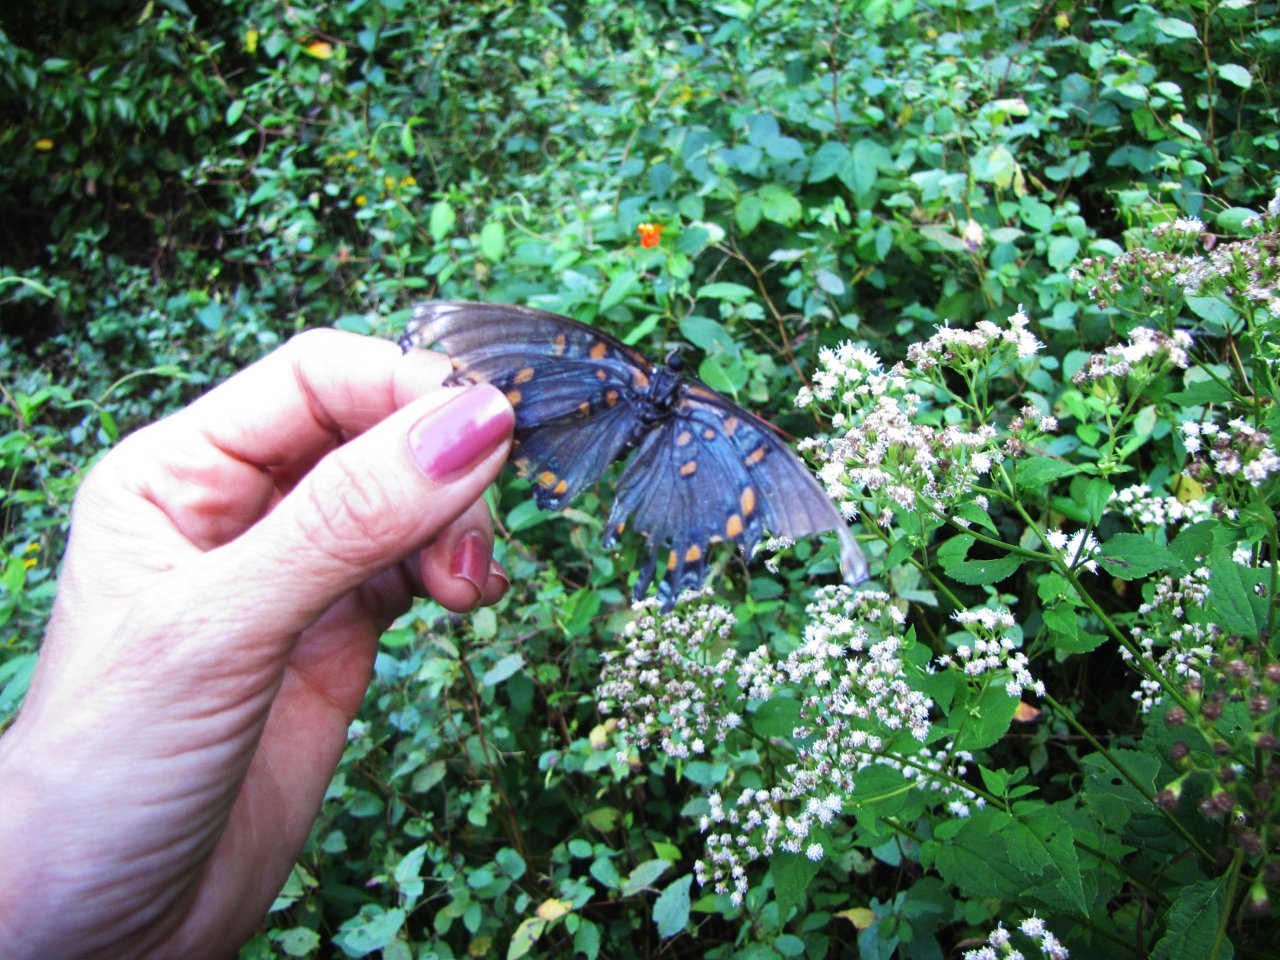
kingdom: Animalia
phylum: Arthropoda
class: Insecta
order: Lepidoptera
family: Nymphalidae
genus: Limenitis
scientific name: Limenitis astyanax
